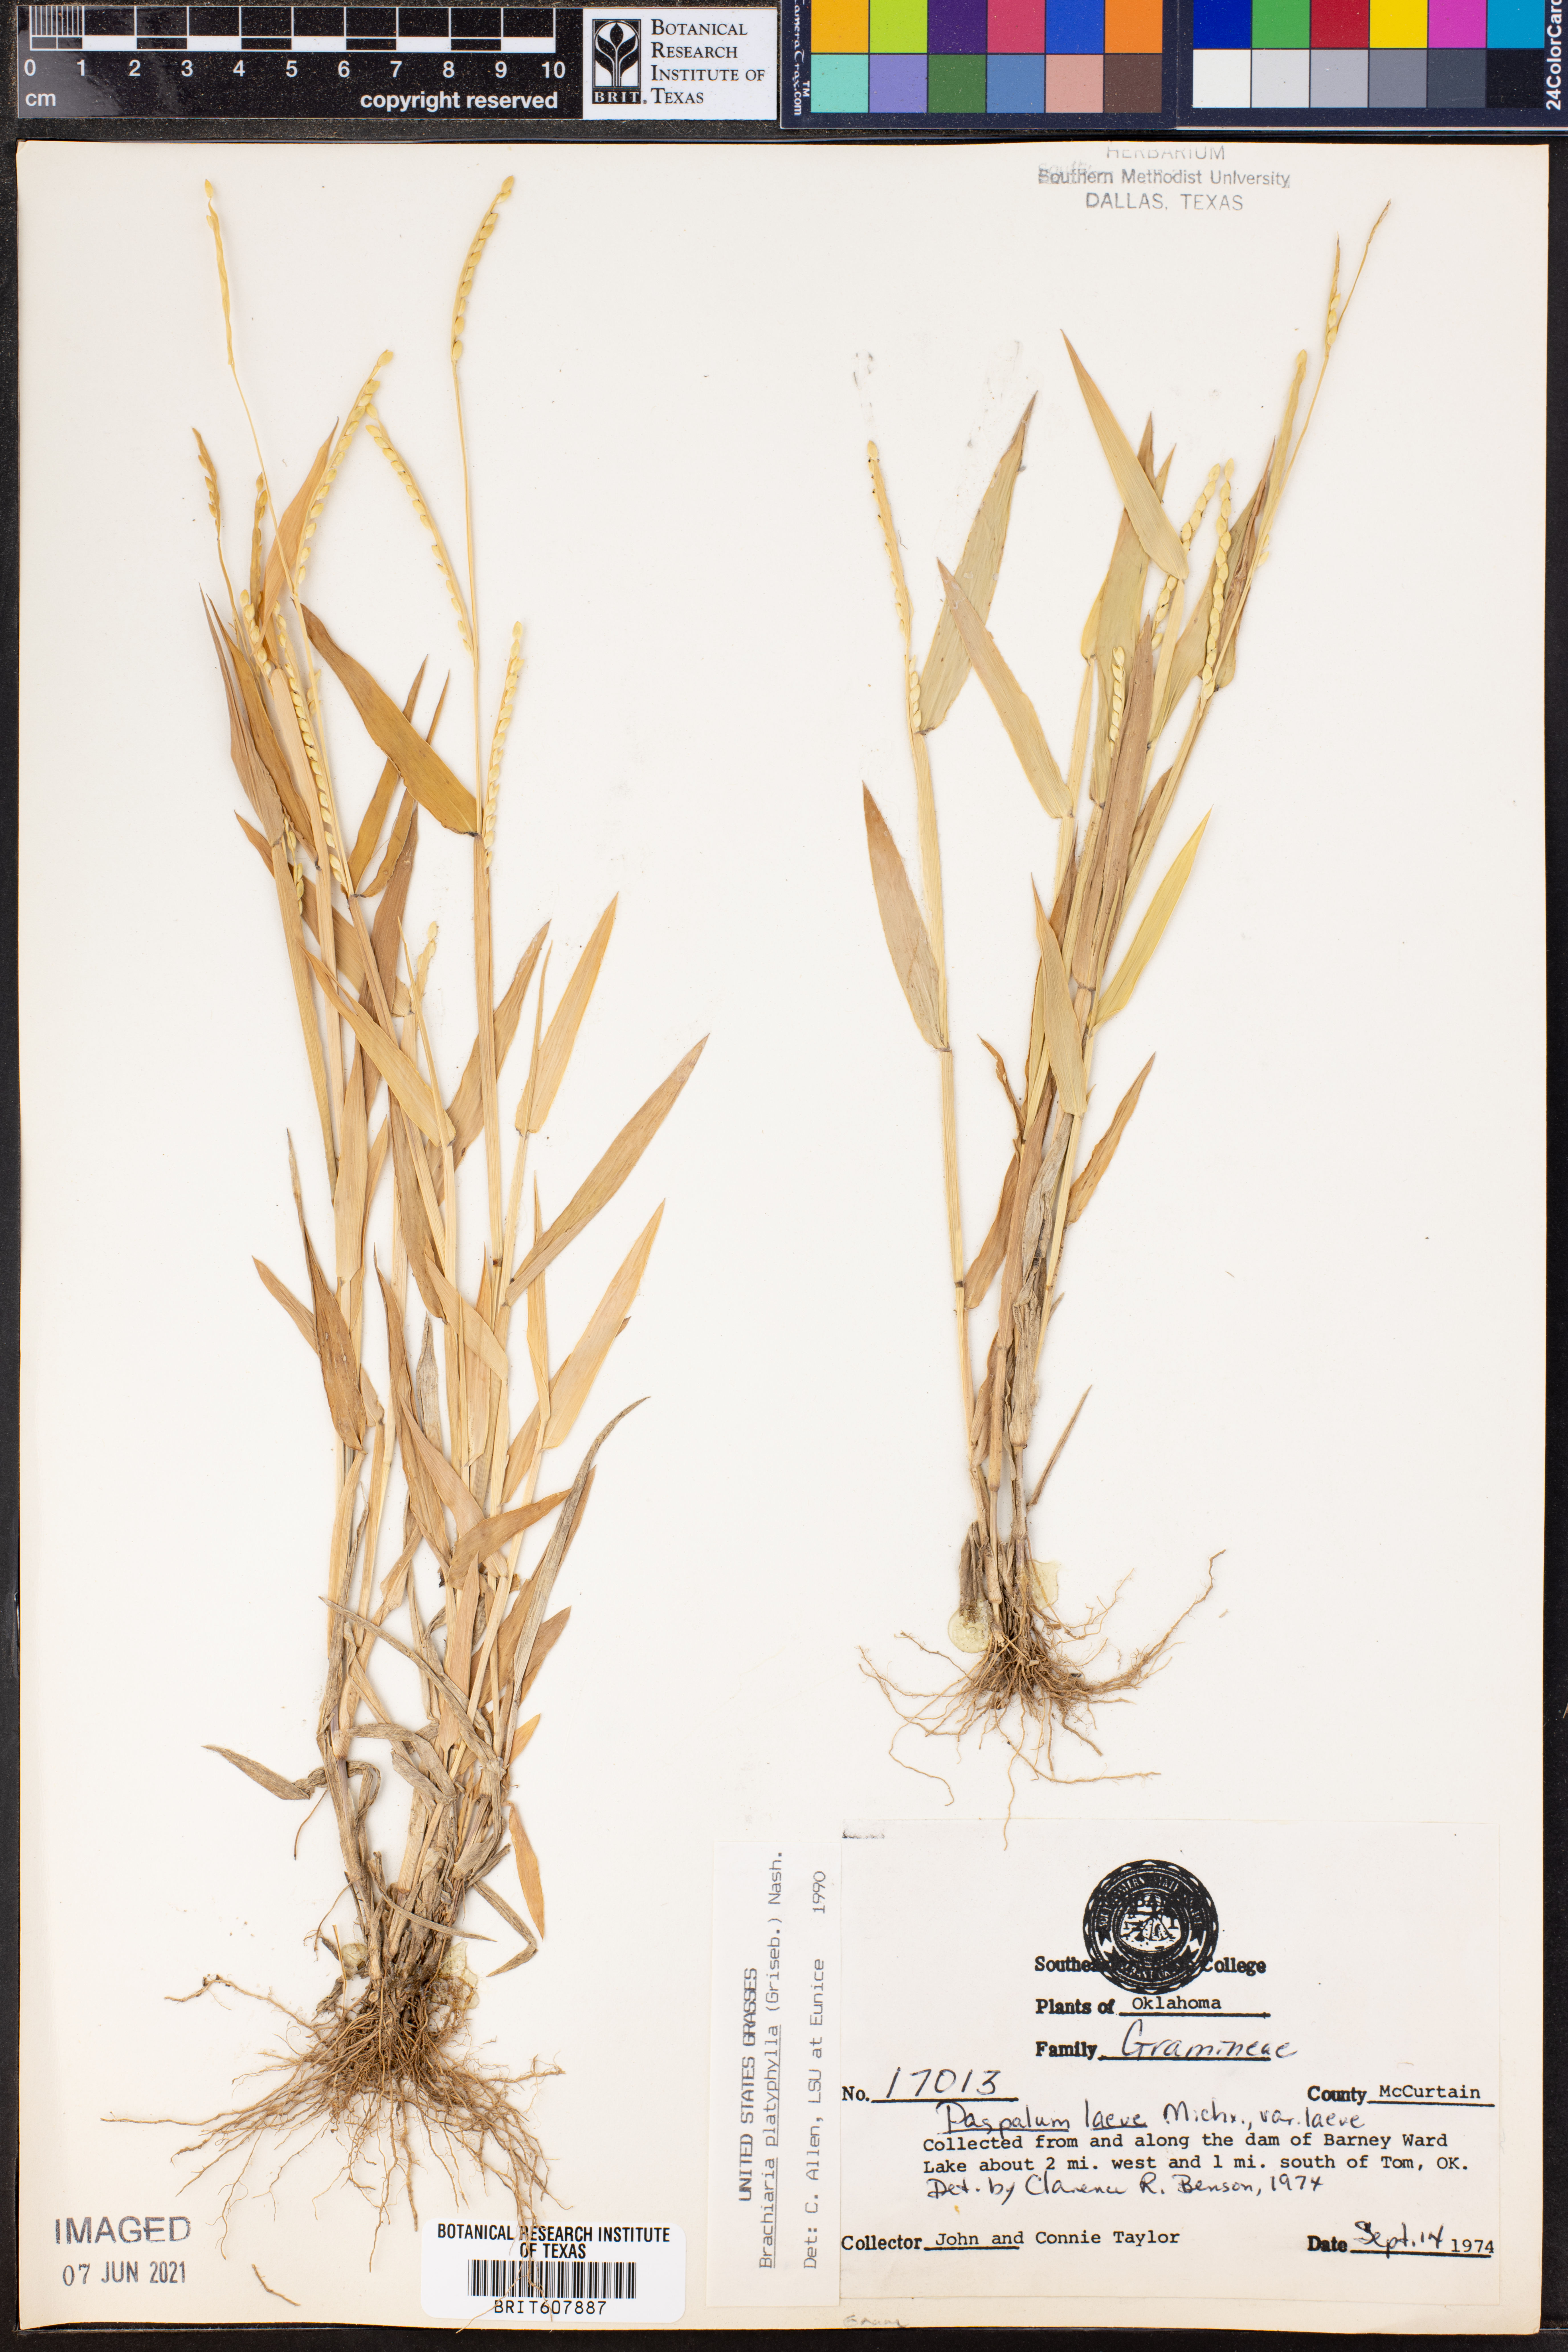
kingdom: Plantae
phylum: Tracheophyta
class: Liliopsida
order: Poales
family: Poaceae
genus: Paspalum
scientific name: Paspalum laeve
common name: Field paspalum
